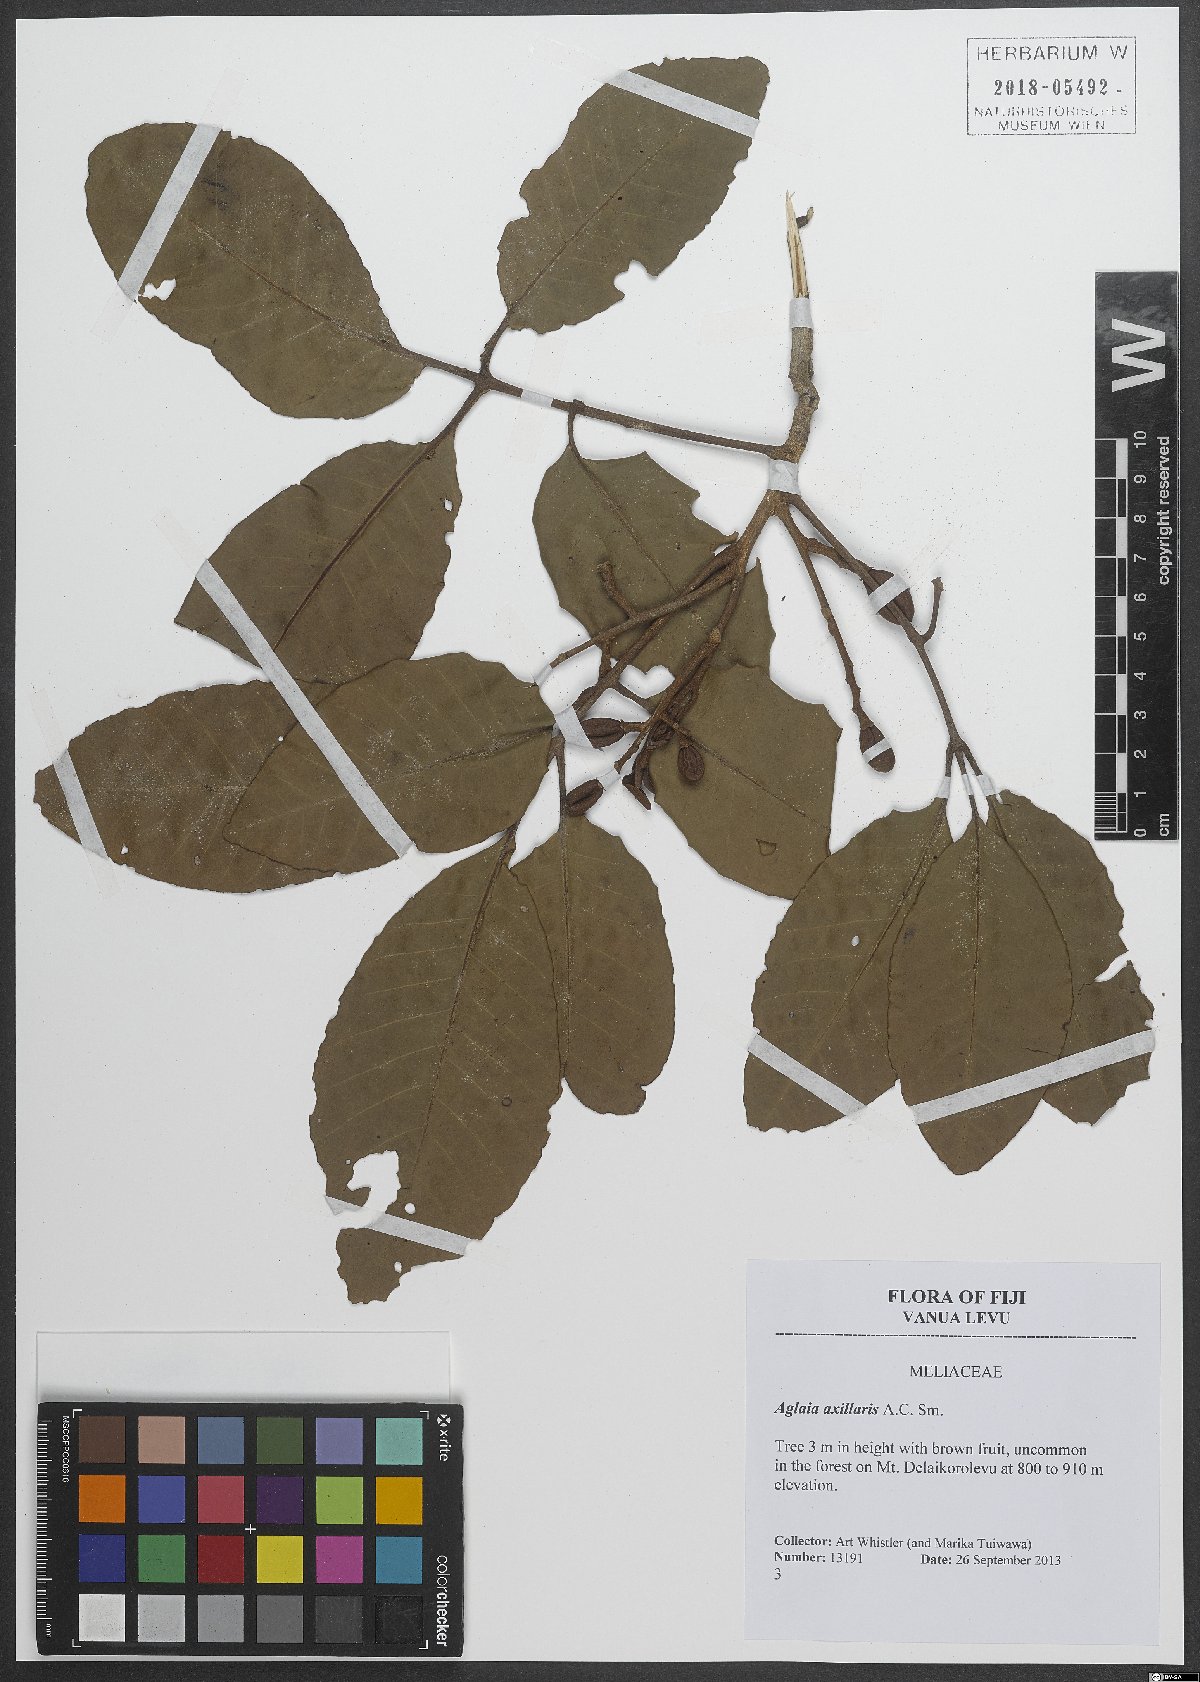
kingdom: Plantae
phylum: Tracheophyta
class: Magnoliopsida
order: Sapindales
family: Meliaceae
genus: Aglaia
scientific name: Aglaia vitiensis
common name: Lindiyango
